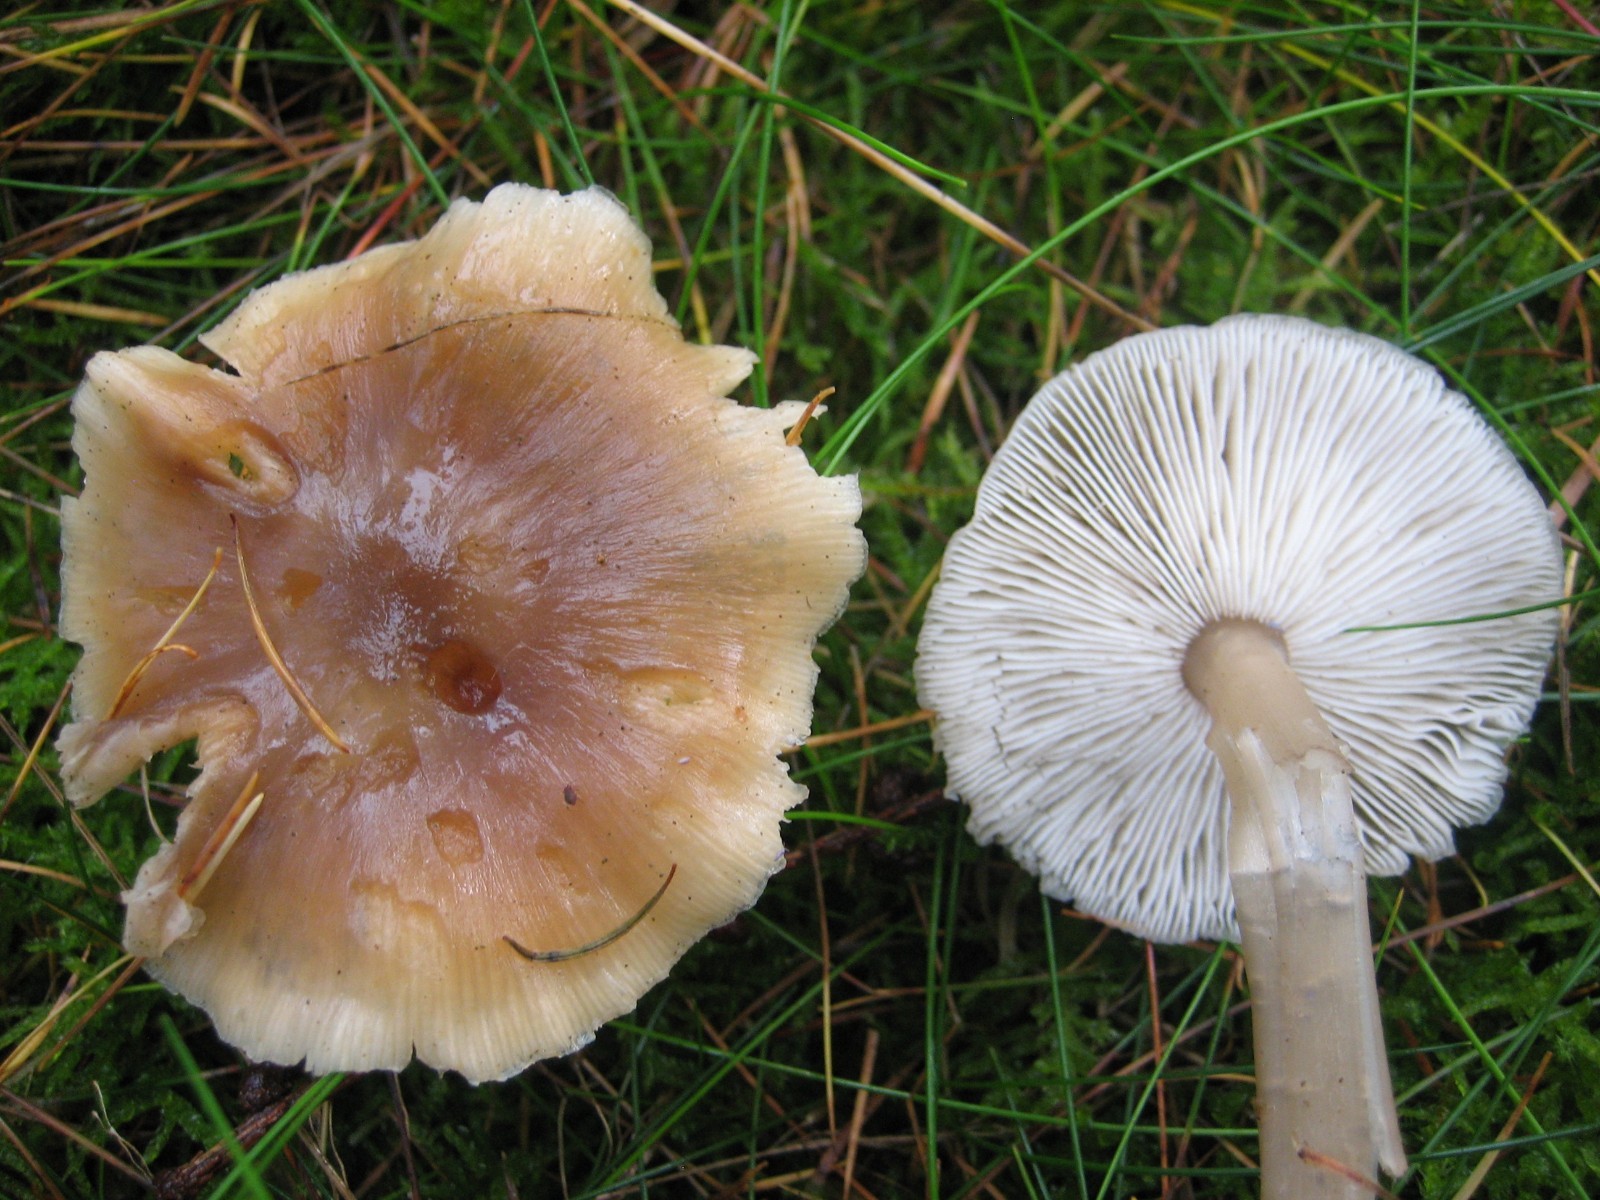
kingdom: Fungi
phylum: Basidiomycota
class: Agaricomycetes
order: Agaricales
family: Omphalotaceae
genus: Rhodocollybia
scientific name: Rhodocollybia
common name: fladhat
